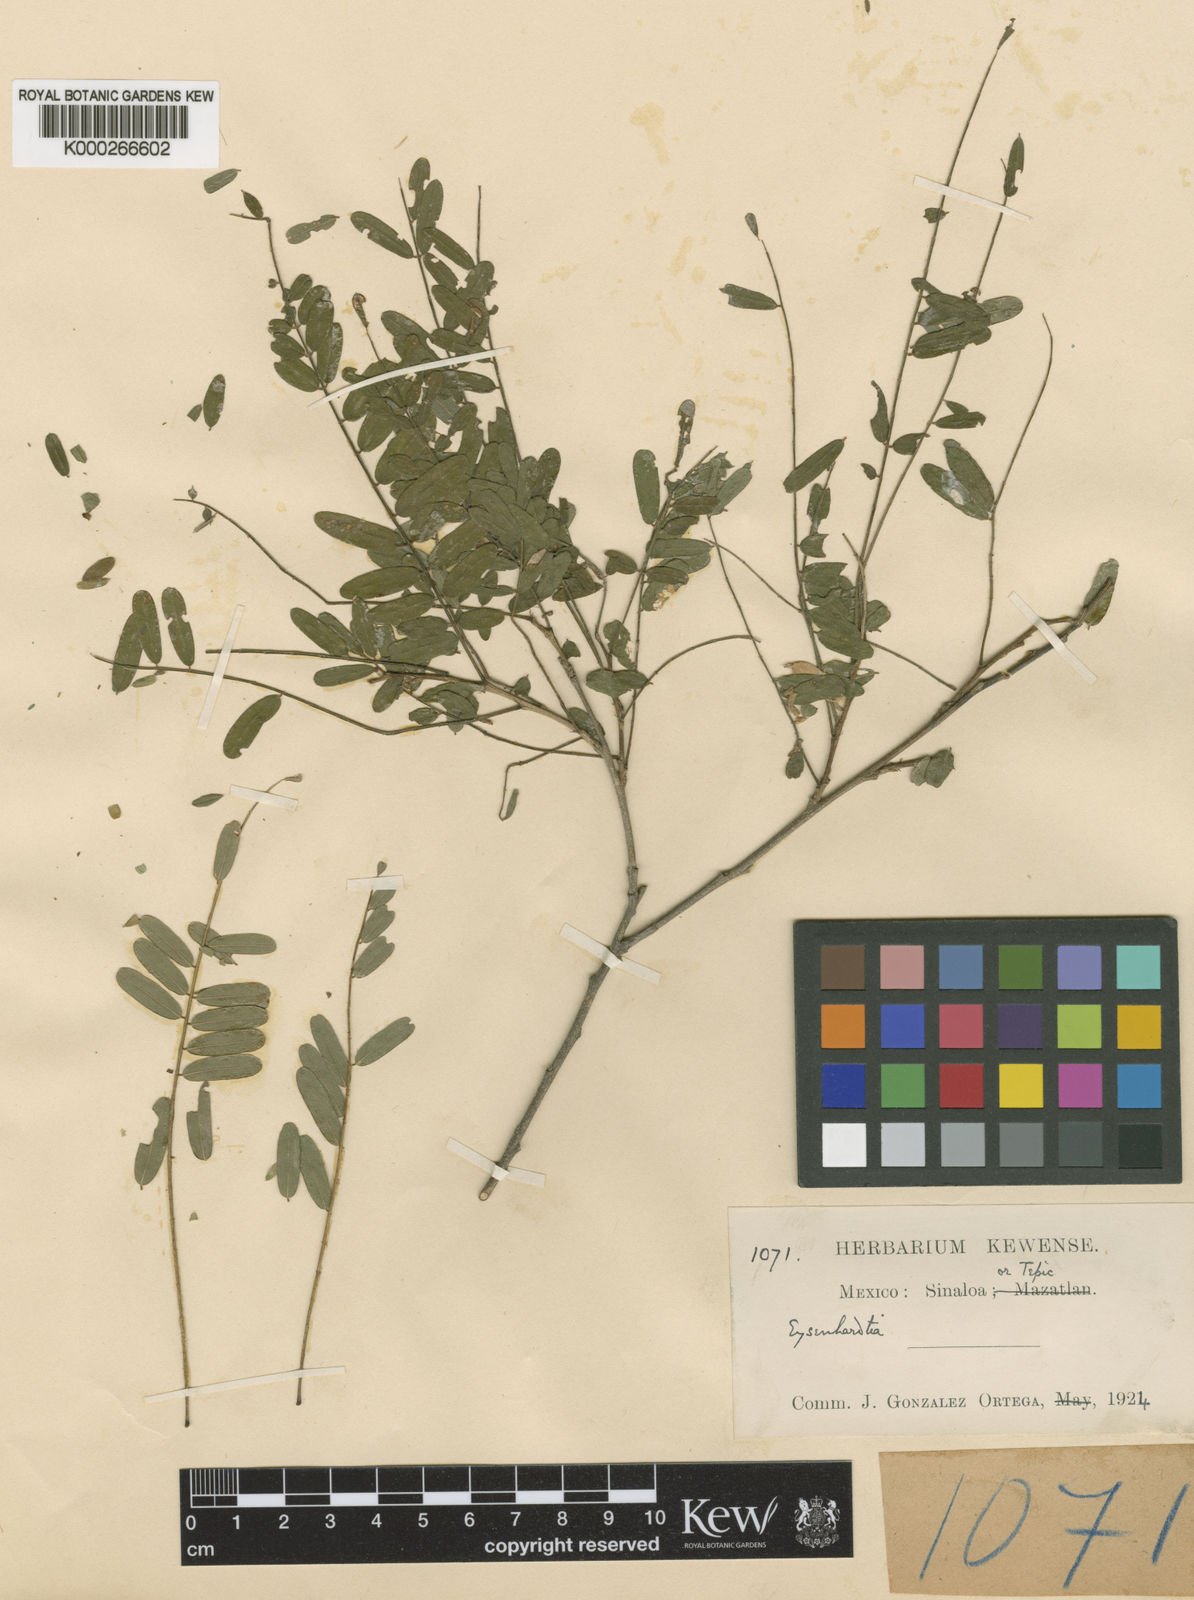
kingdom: Plantae
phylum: Tracheophyta
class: Magnoliopsida
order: Fabales
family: Fabaceae
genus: Eysenhardtia
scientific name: Eysenhardtia orthocarpa
